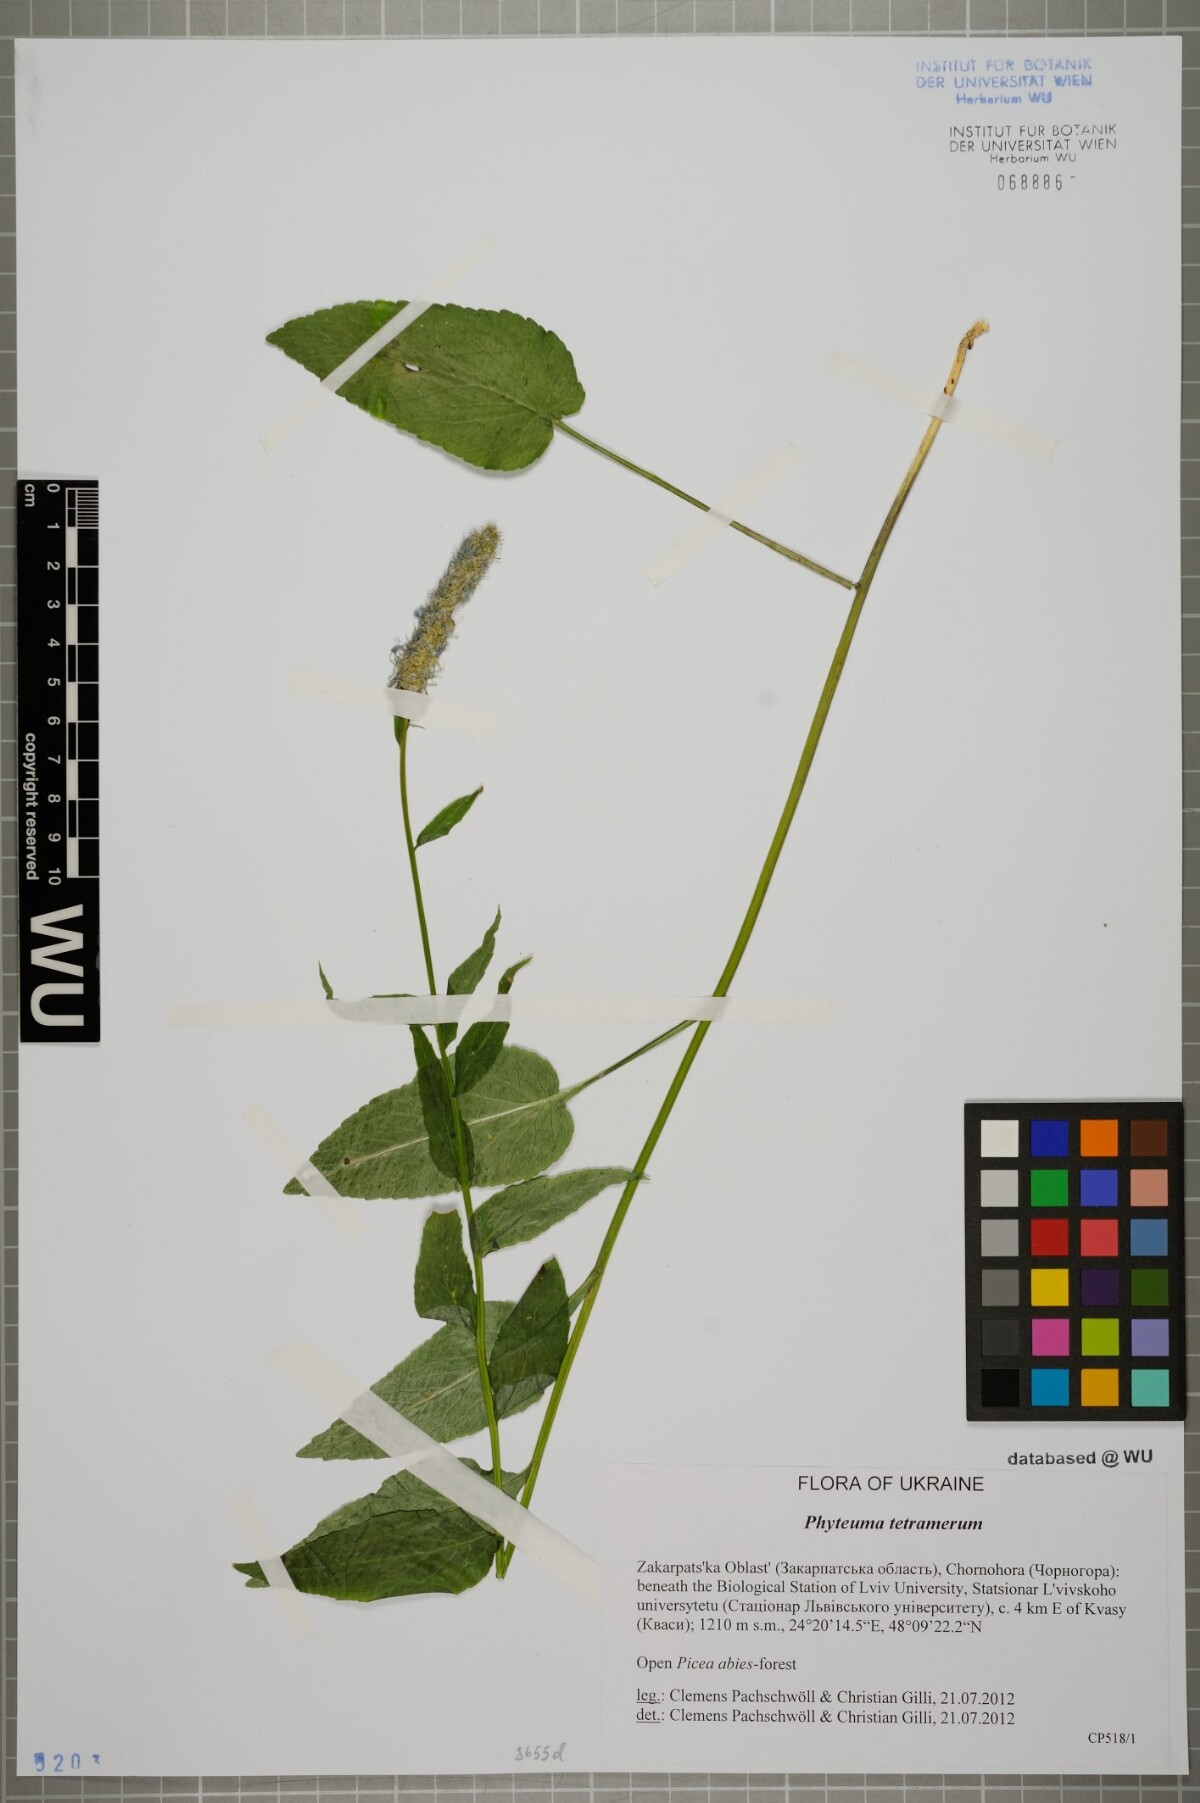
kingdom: Plantae
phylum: Tracheophyta
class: Magnoliopsida
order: Asterales
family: Campanulaceae
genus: Phyteuma
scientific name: Phyteuma tetramerum
